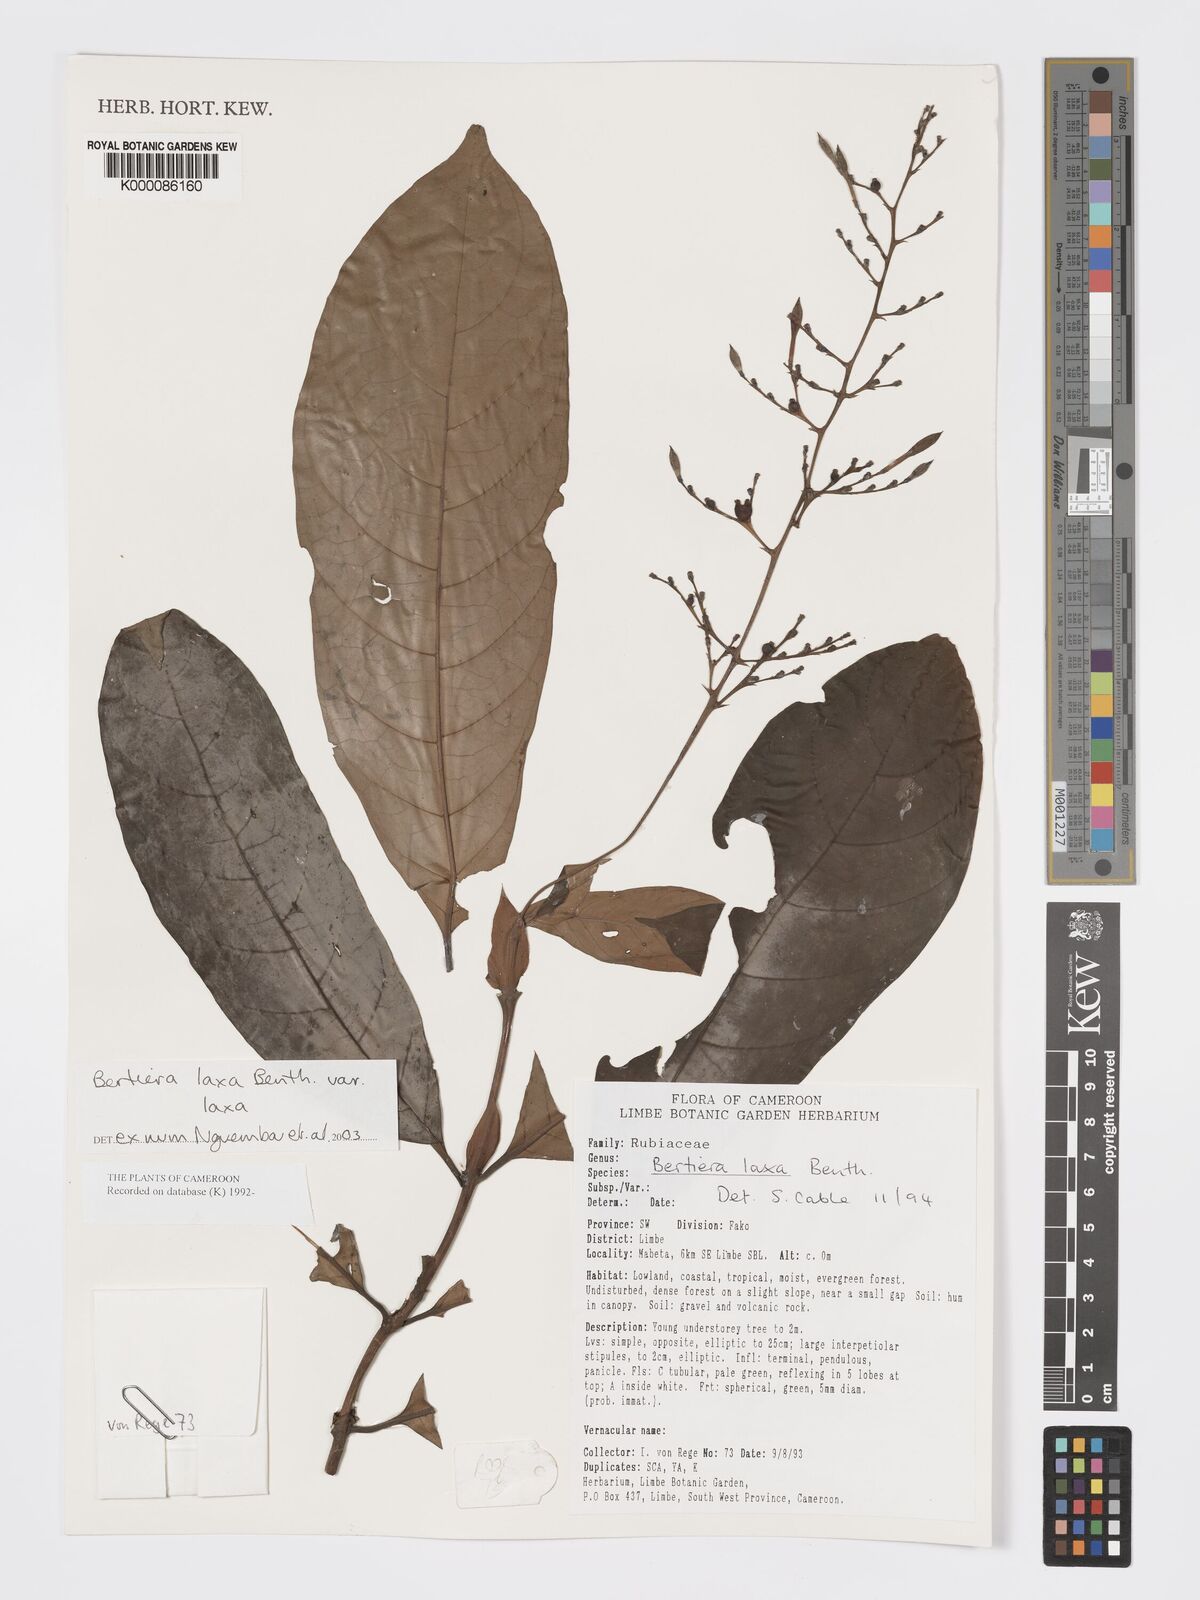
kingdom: Plantae
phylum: Tracheophyta
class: Magnoliopsida
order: Gentianales
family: Rubiaceae
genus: Bertiera
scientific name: Bertiera laxa
